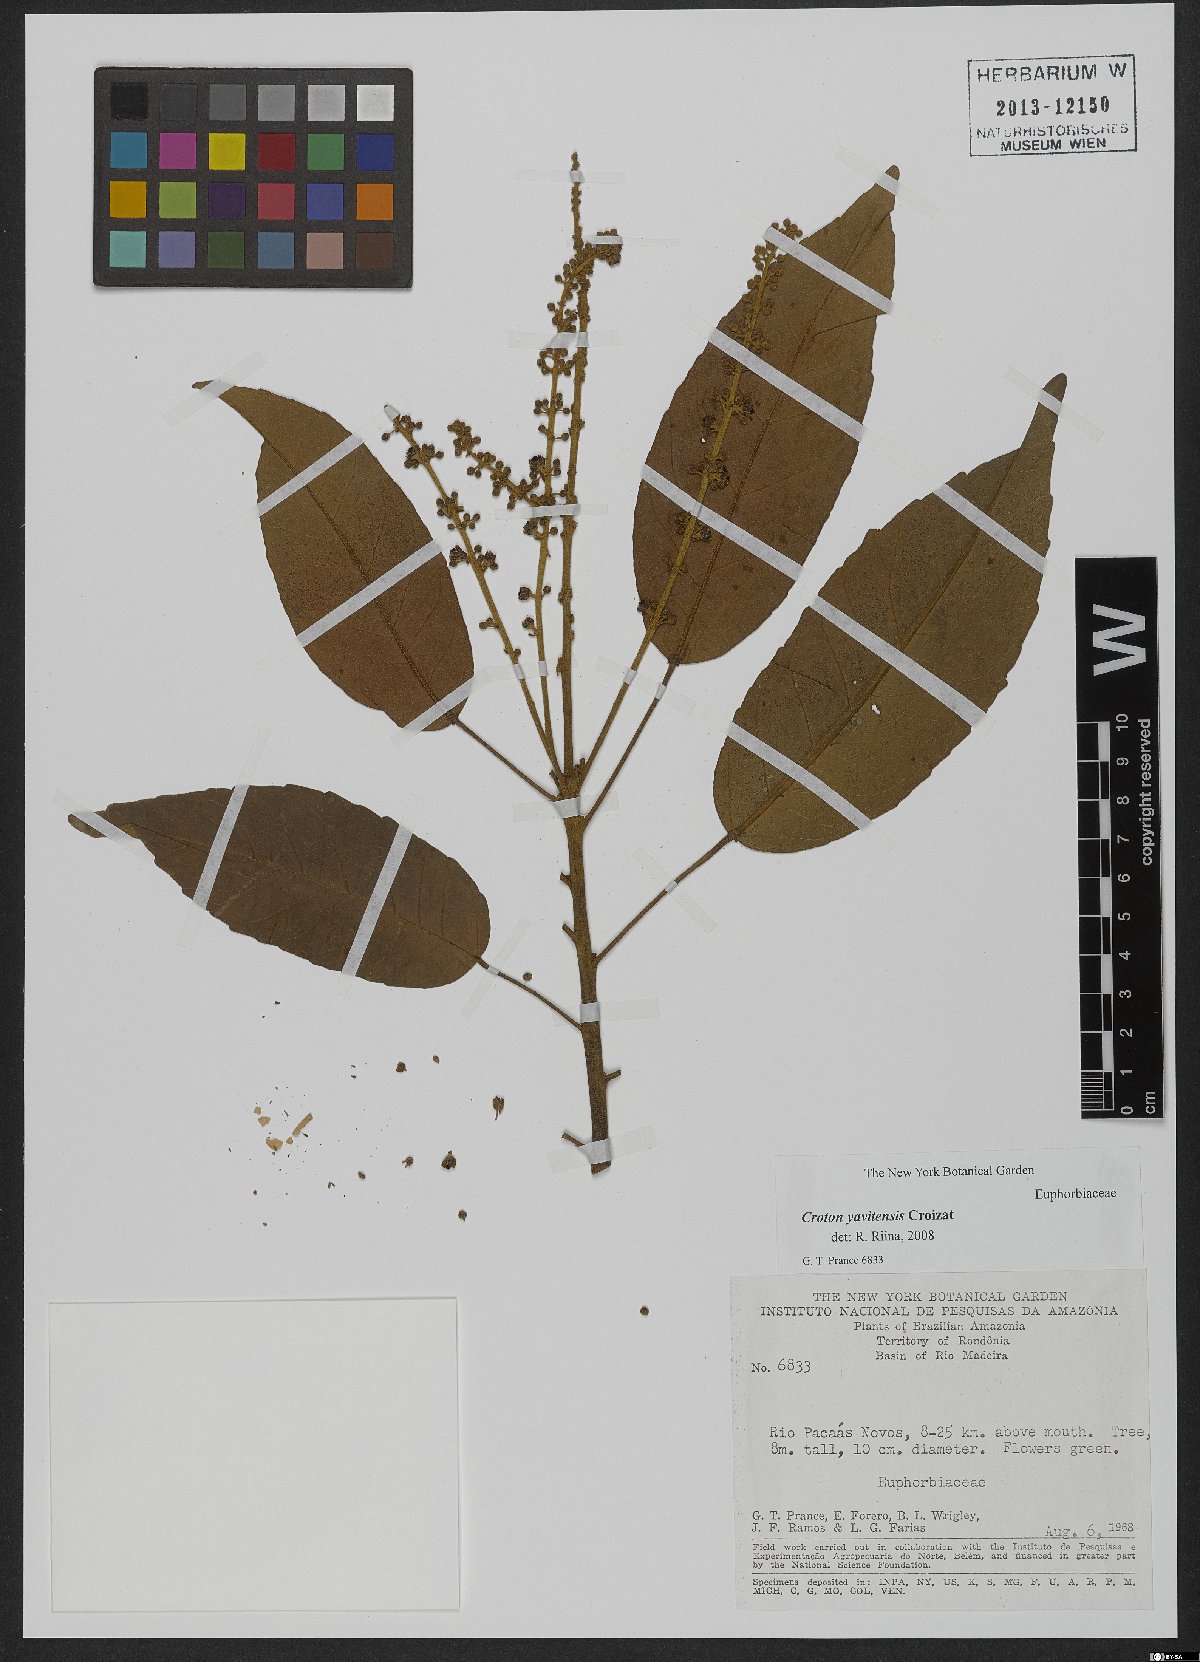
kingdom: Plantae
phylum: Tracheophyta
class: Magnoliopsida
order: Malpighiales
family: Euphorbiaceae
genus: Croton
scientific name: Croton yavitensis
